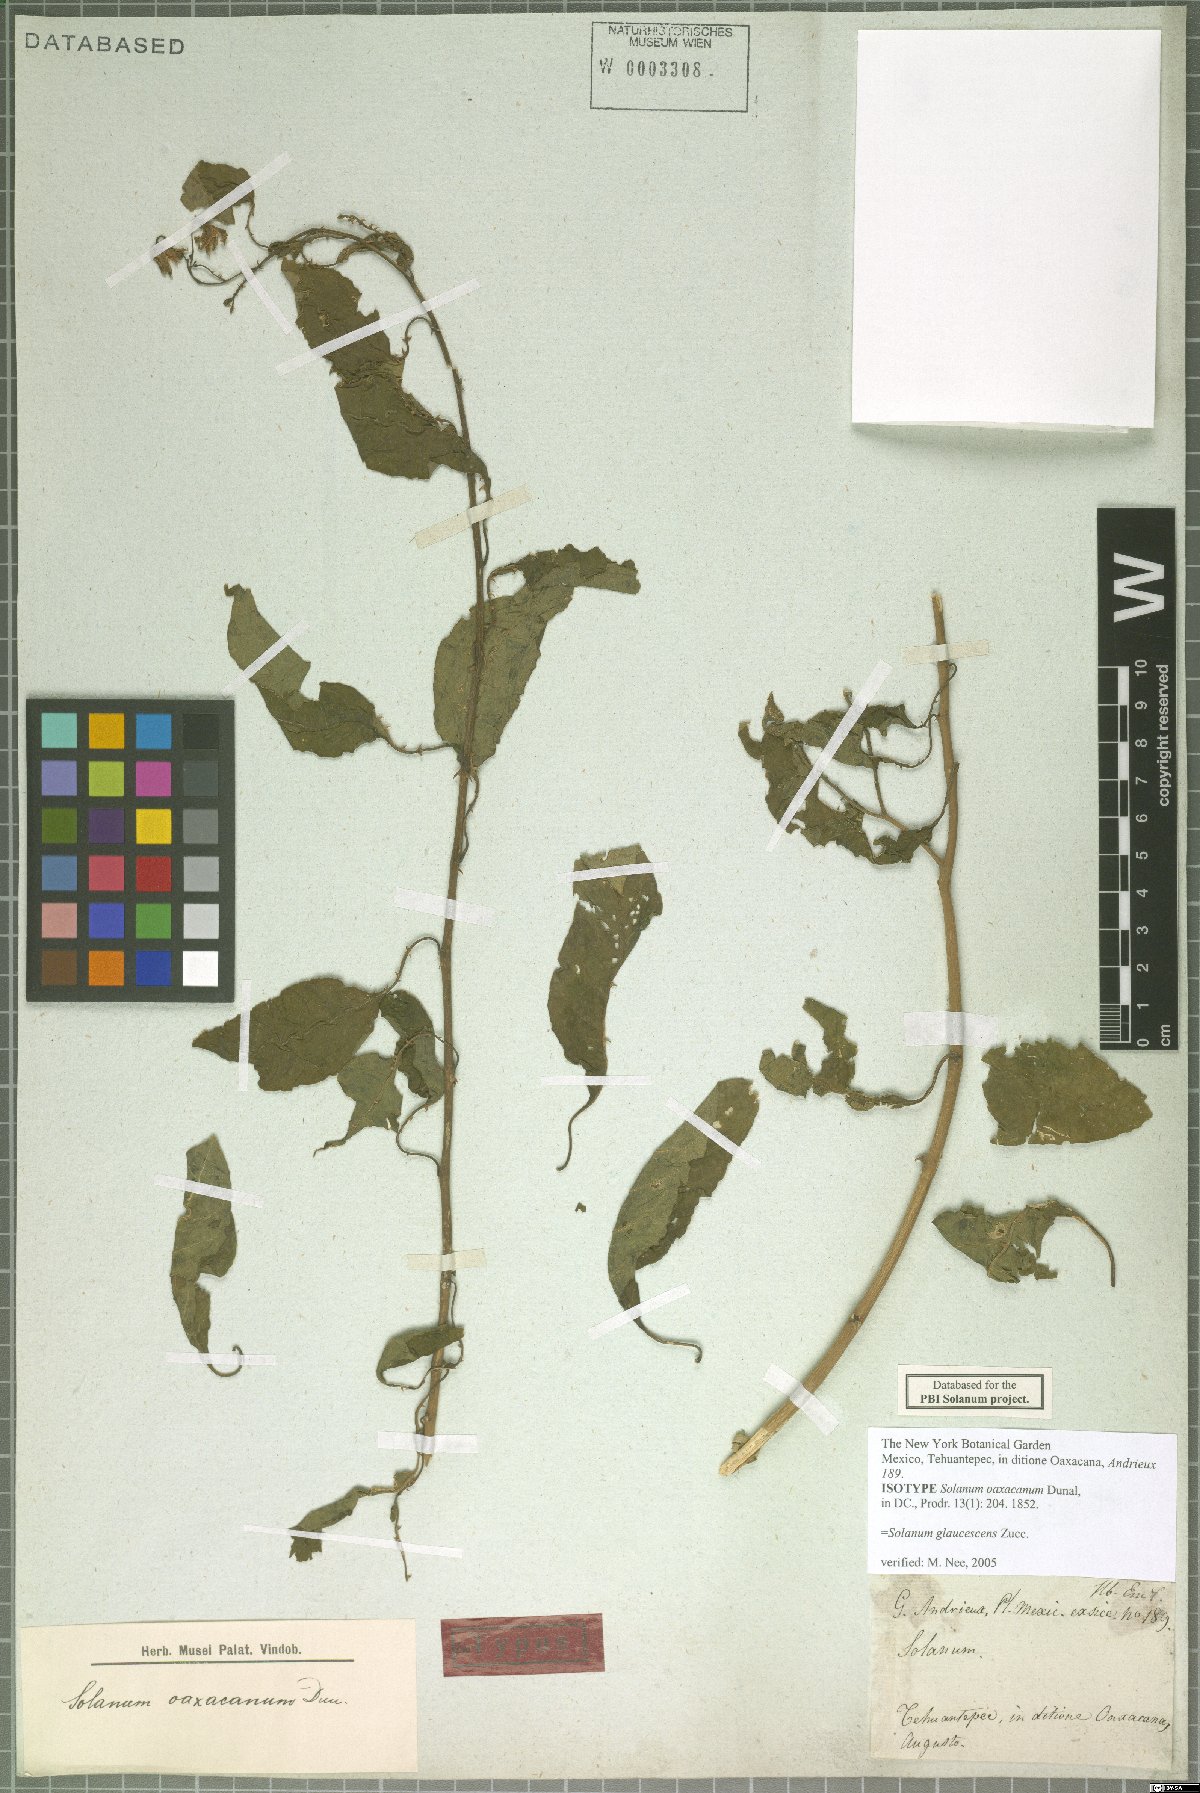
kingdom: Plantae
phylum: Tracheophyta
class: Magnoliopsida
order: Solanales
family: Solanaceae
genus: Solanum
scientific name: Solanum glaucescens
